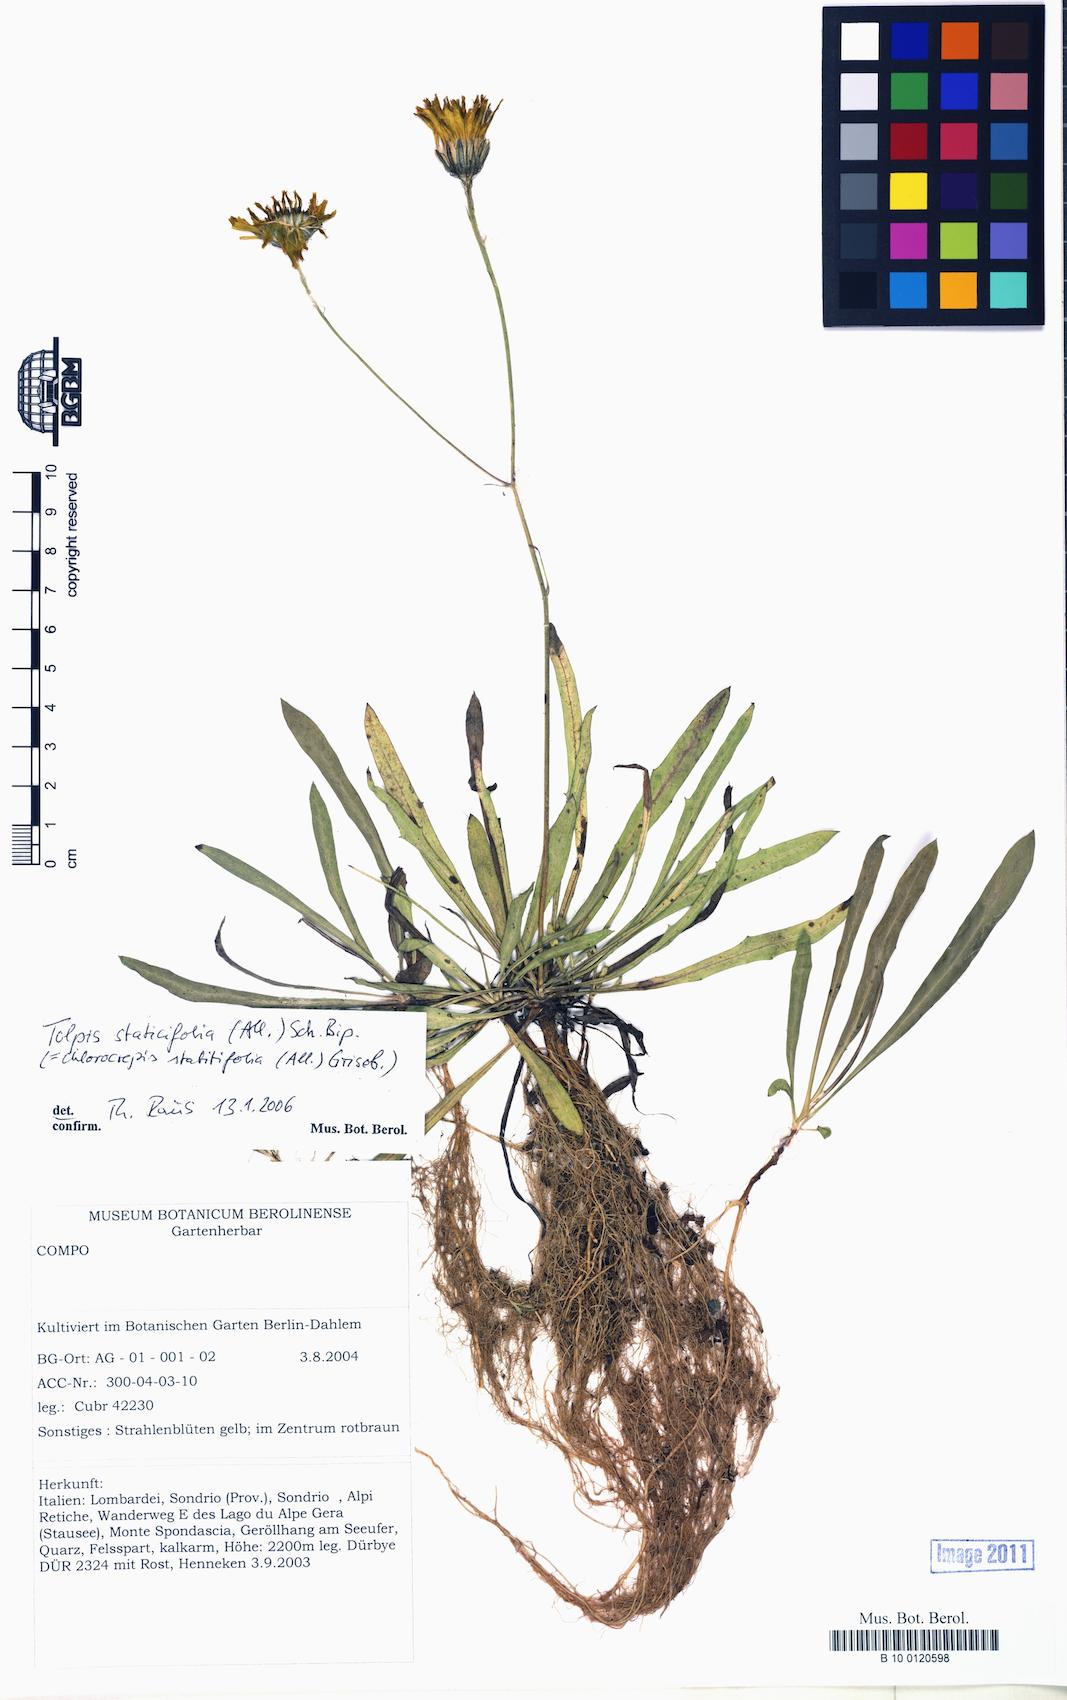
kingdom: Plantae
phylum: Tracheophyta
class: Magnoliopsida
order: Asterales
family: Asteraceae
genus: Tolpis
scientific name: Tolpis staticifolia
